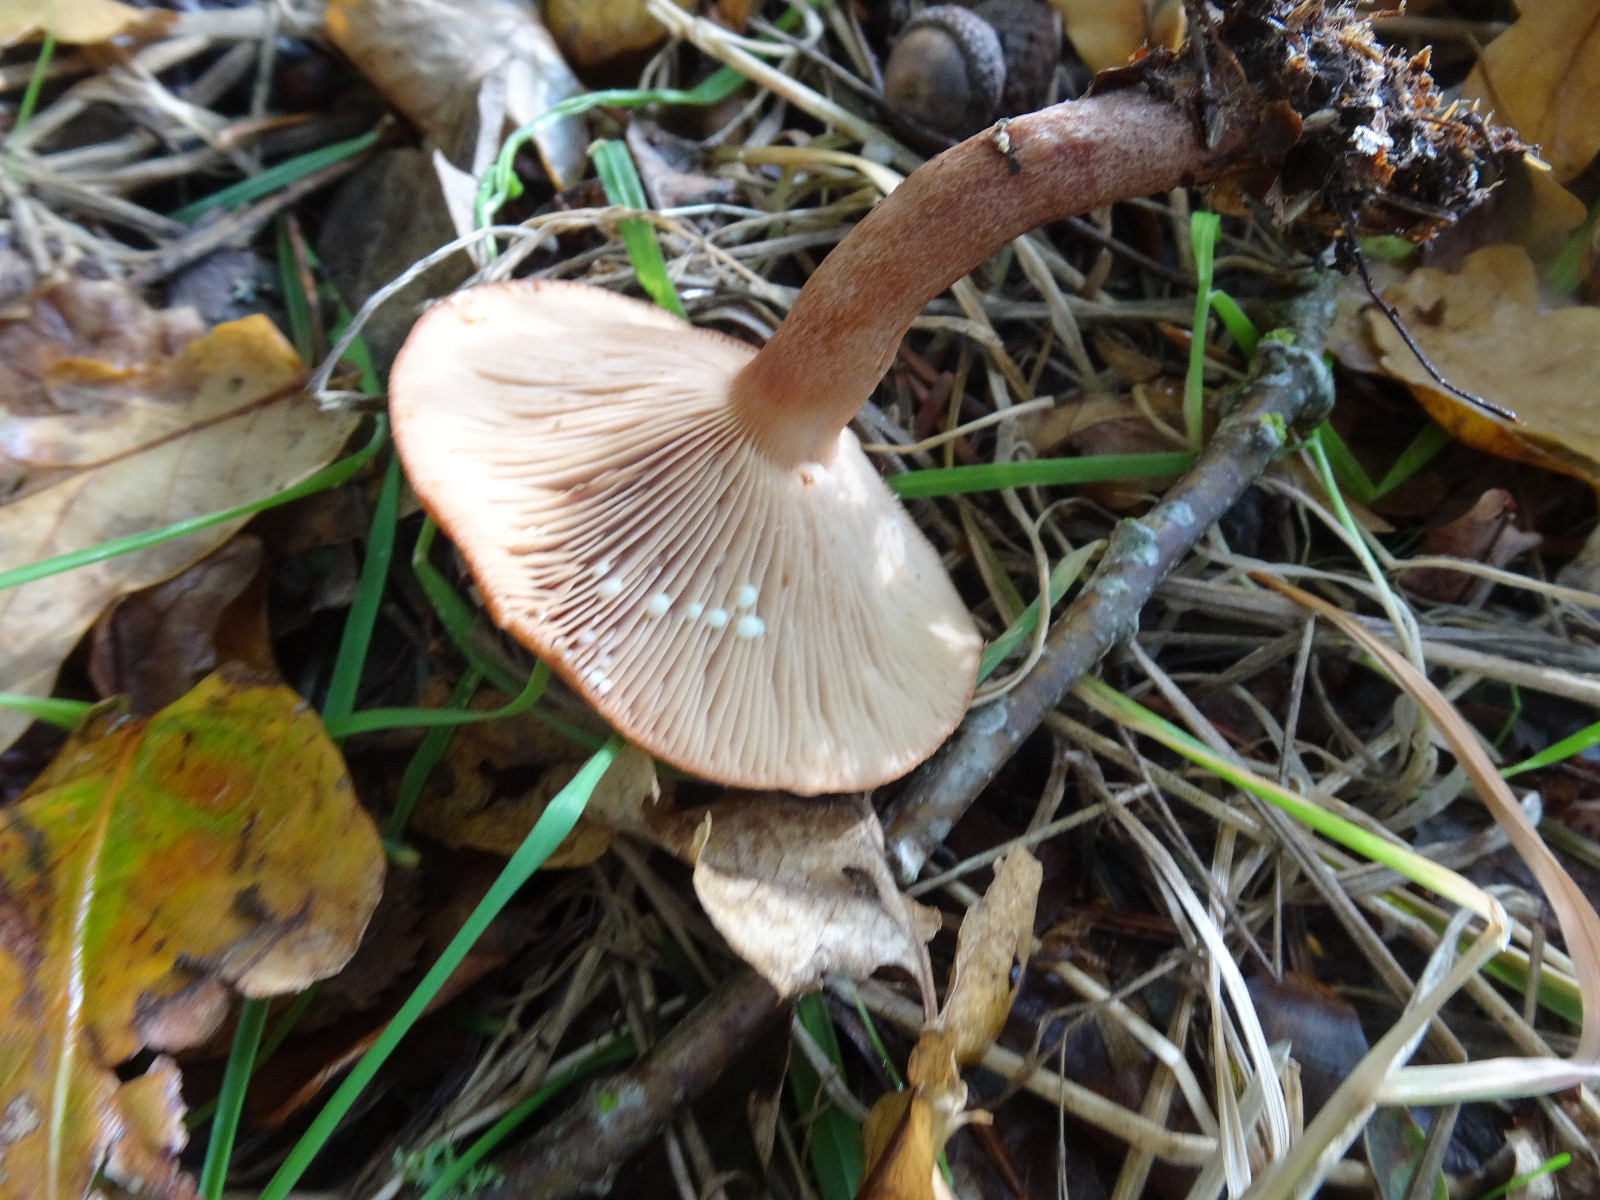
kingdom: Fungi
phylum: Basidiomycota
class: Agaricomycetes
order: Russulales
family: Russulaceae
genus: Lactarius
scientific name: Lactarius quietus
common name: ege-mælkehat
